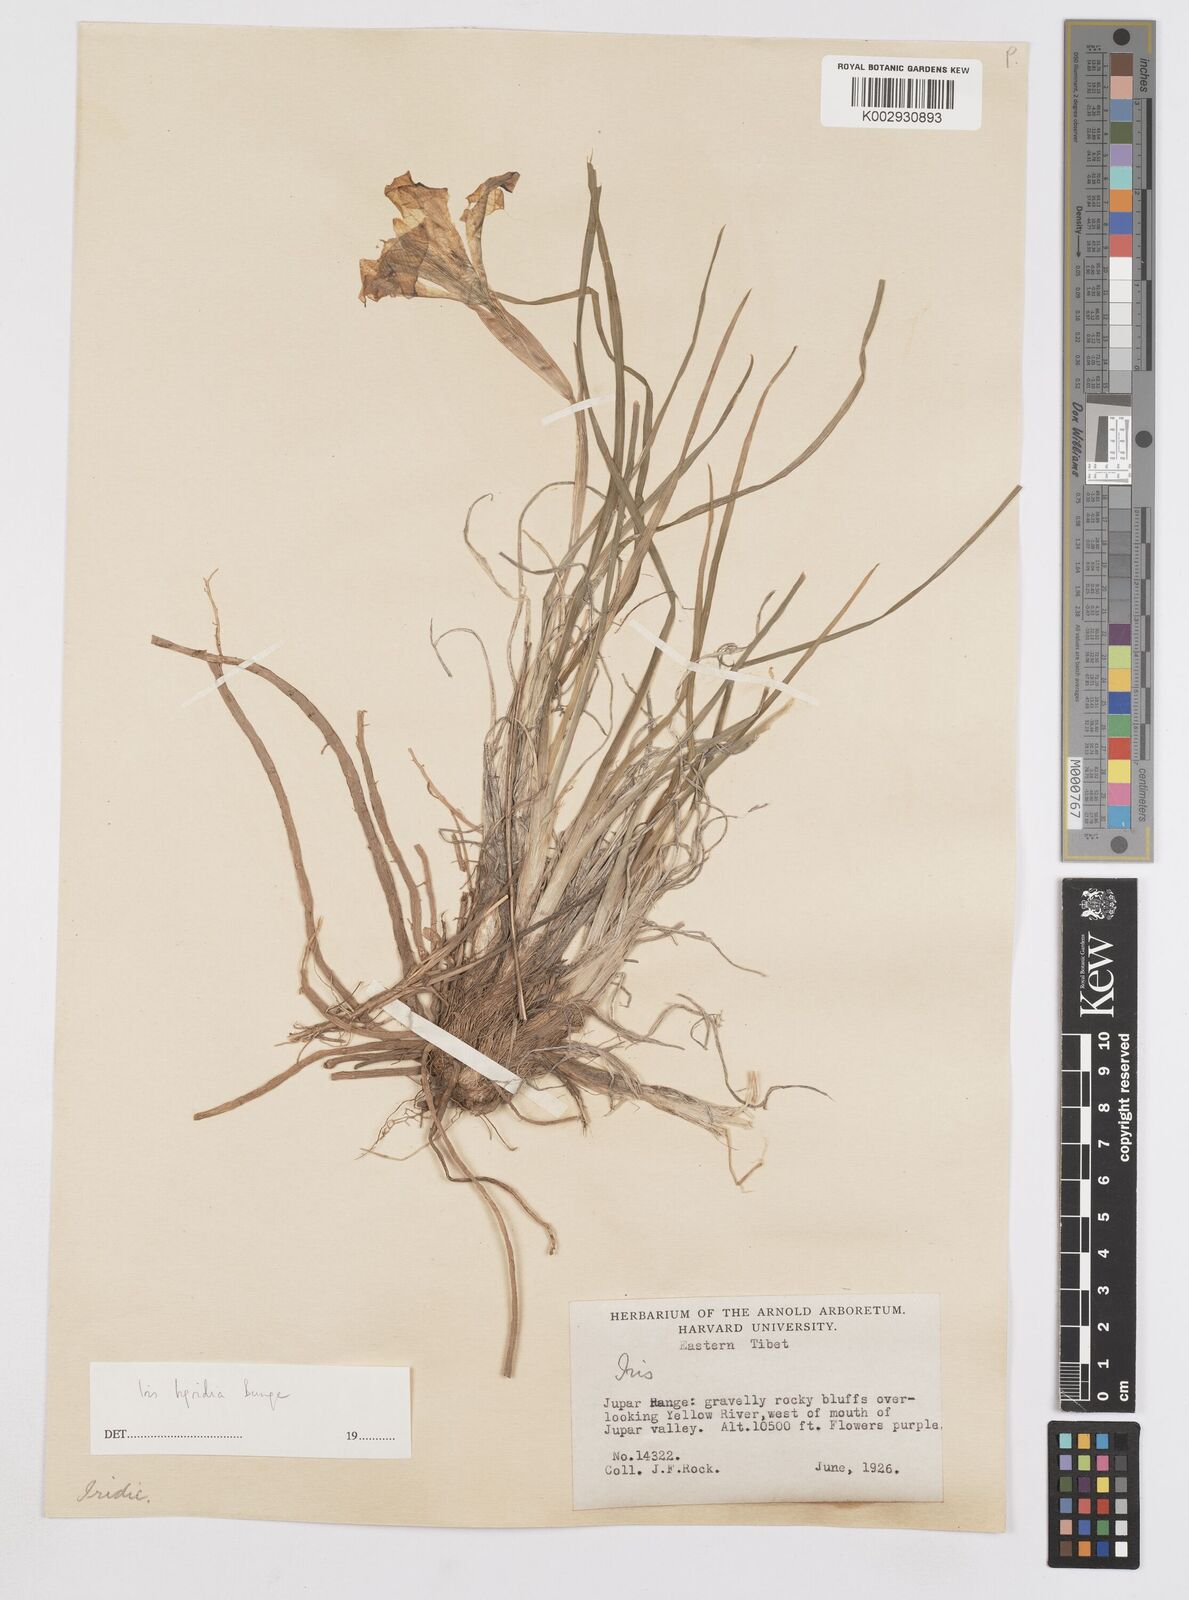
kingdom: Plantae
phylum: Tracheophyta
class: Liliopsida
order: Asparagales
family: Iridaceae
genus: Iris
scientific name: Iris tigridia
